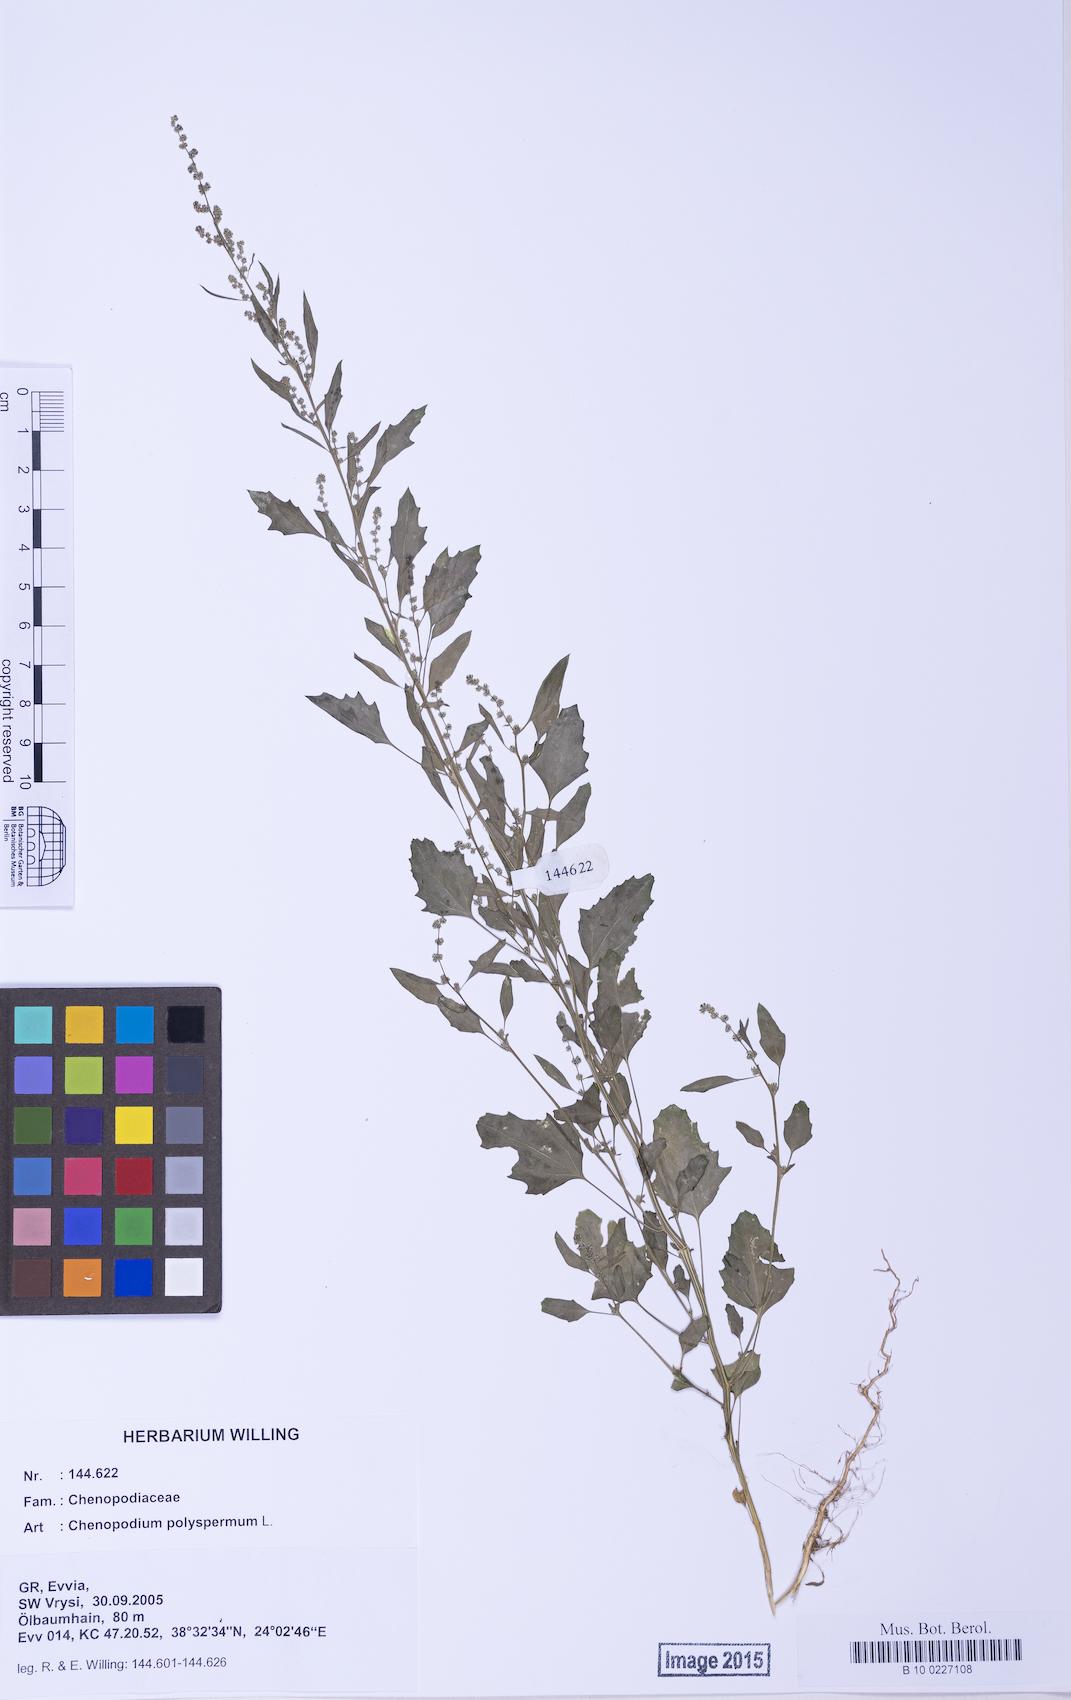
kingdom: Plantae
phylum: Tracheophyta
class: Magnoliopsida
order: Caryophyllales
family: Amaranthaceae
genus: Chenopodium
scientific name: Chenopodium album
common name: Fat-hen
